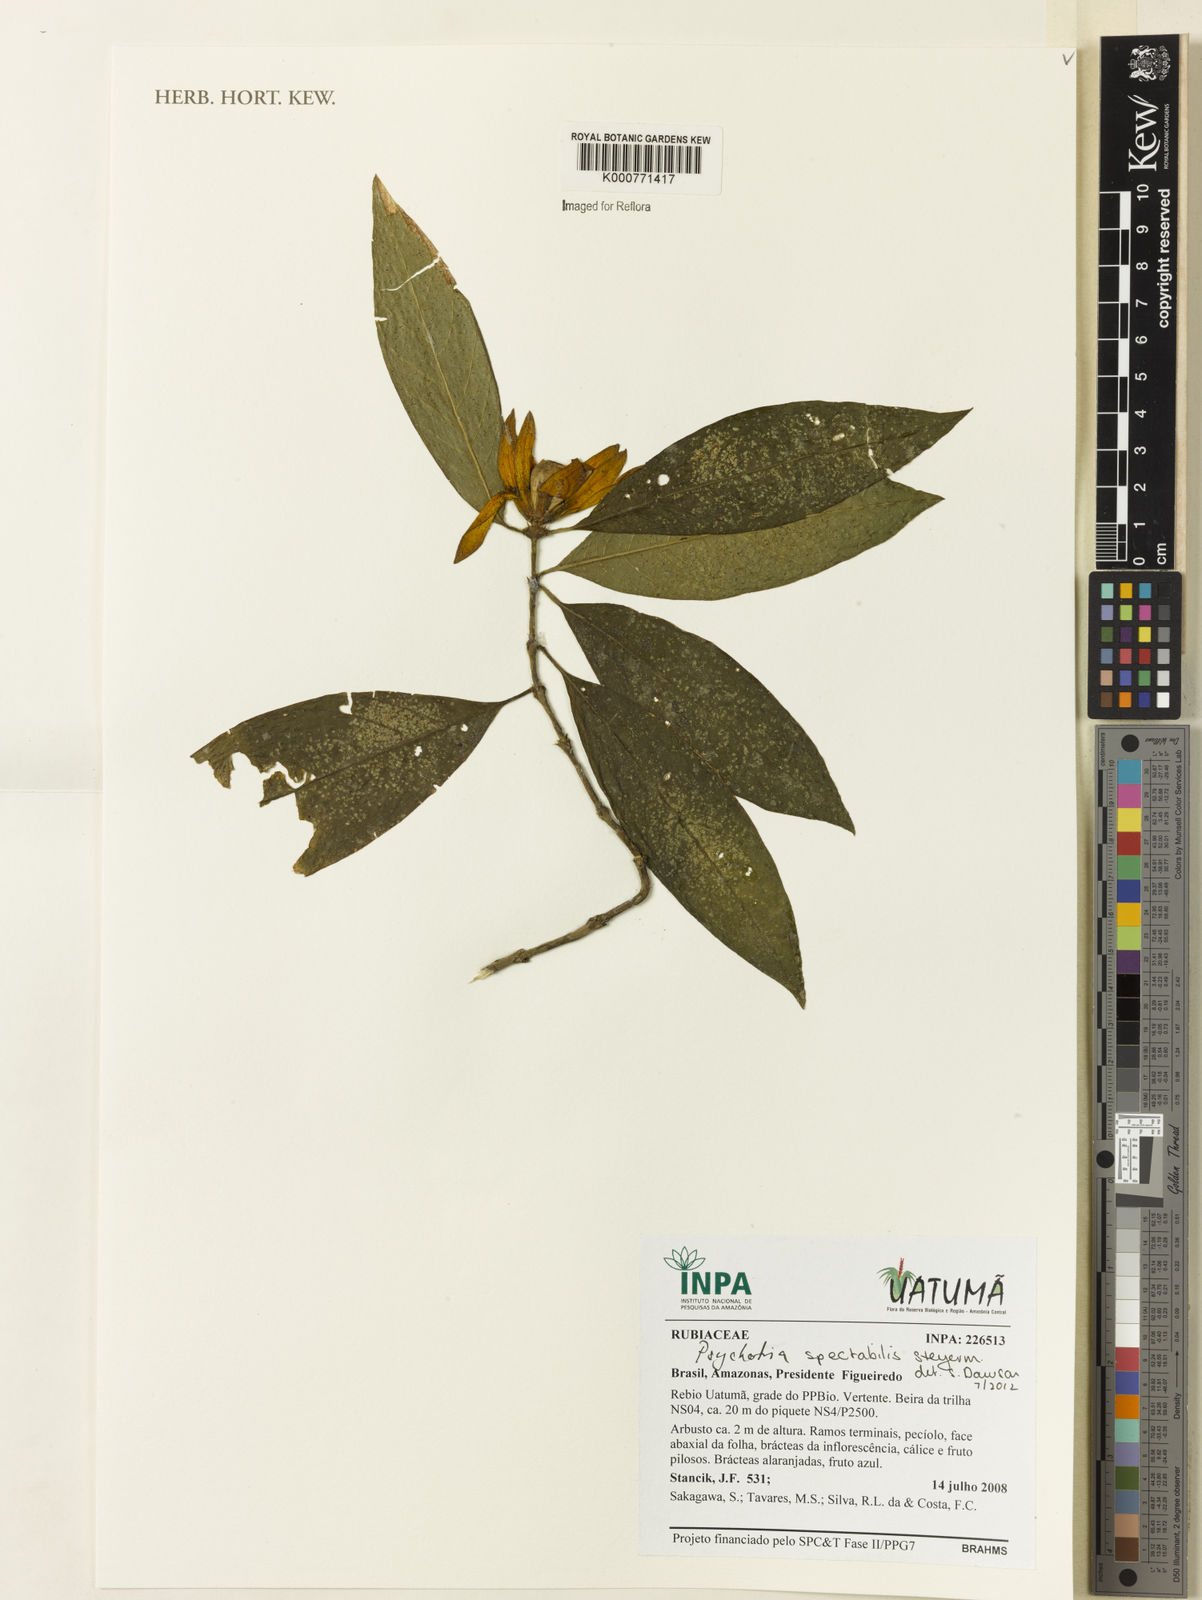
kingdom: Plantae
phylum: Tracheophyta
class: Magnoliopsida
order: Gentianales
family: Rubiaceae
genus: Psychotria
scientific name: Psychotria
